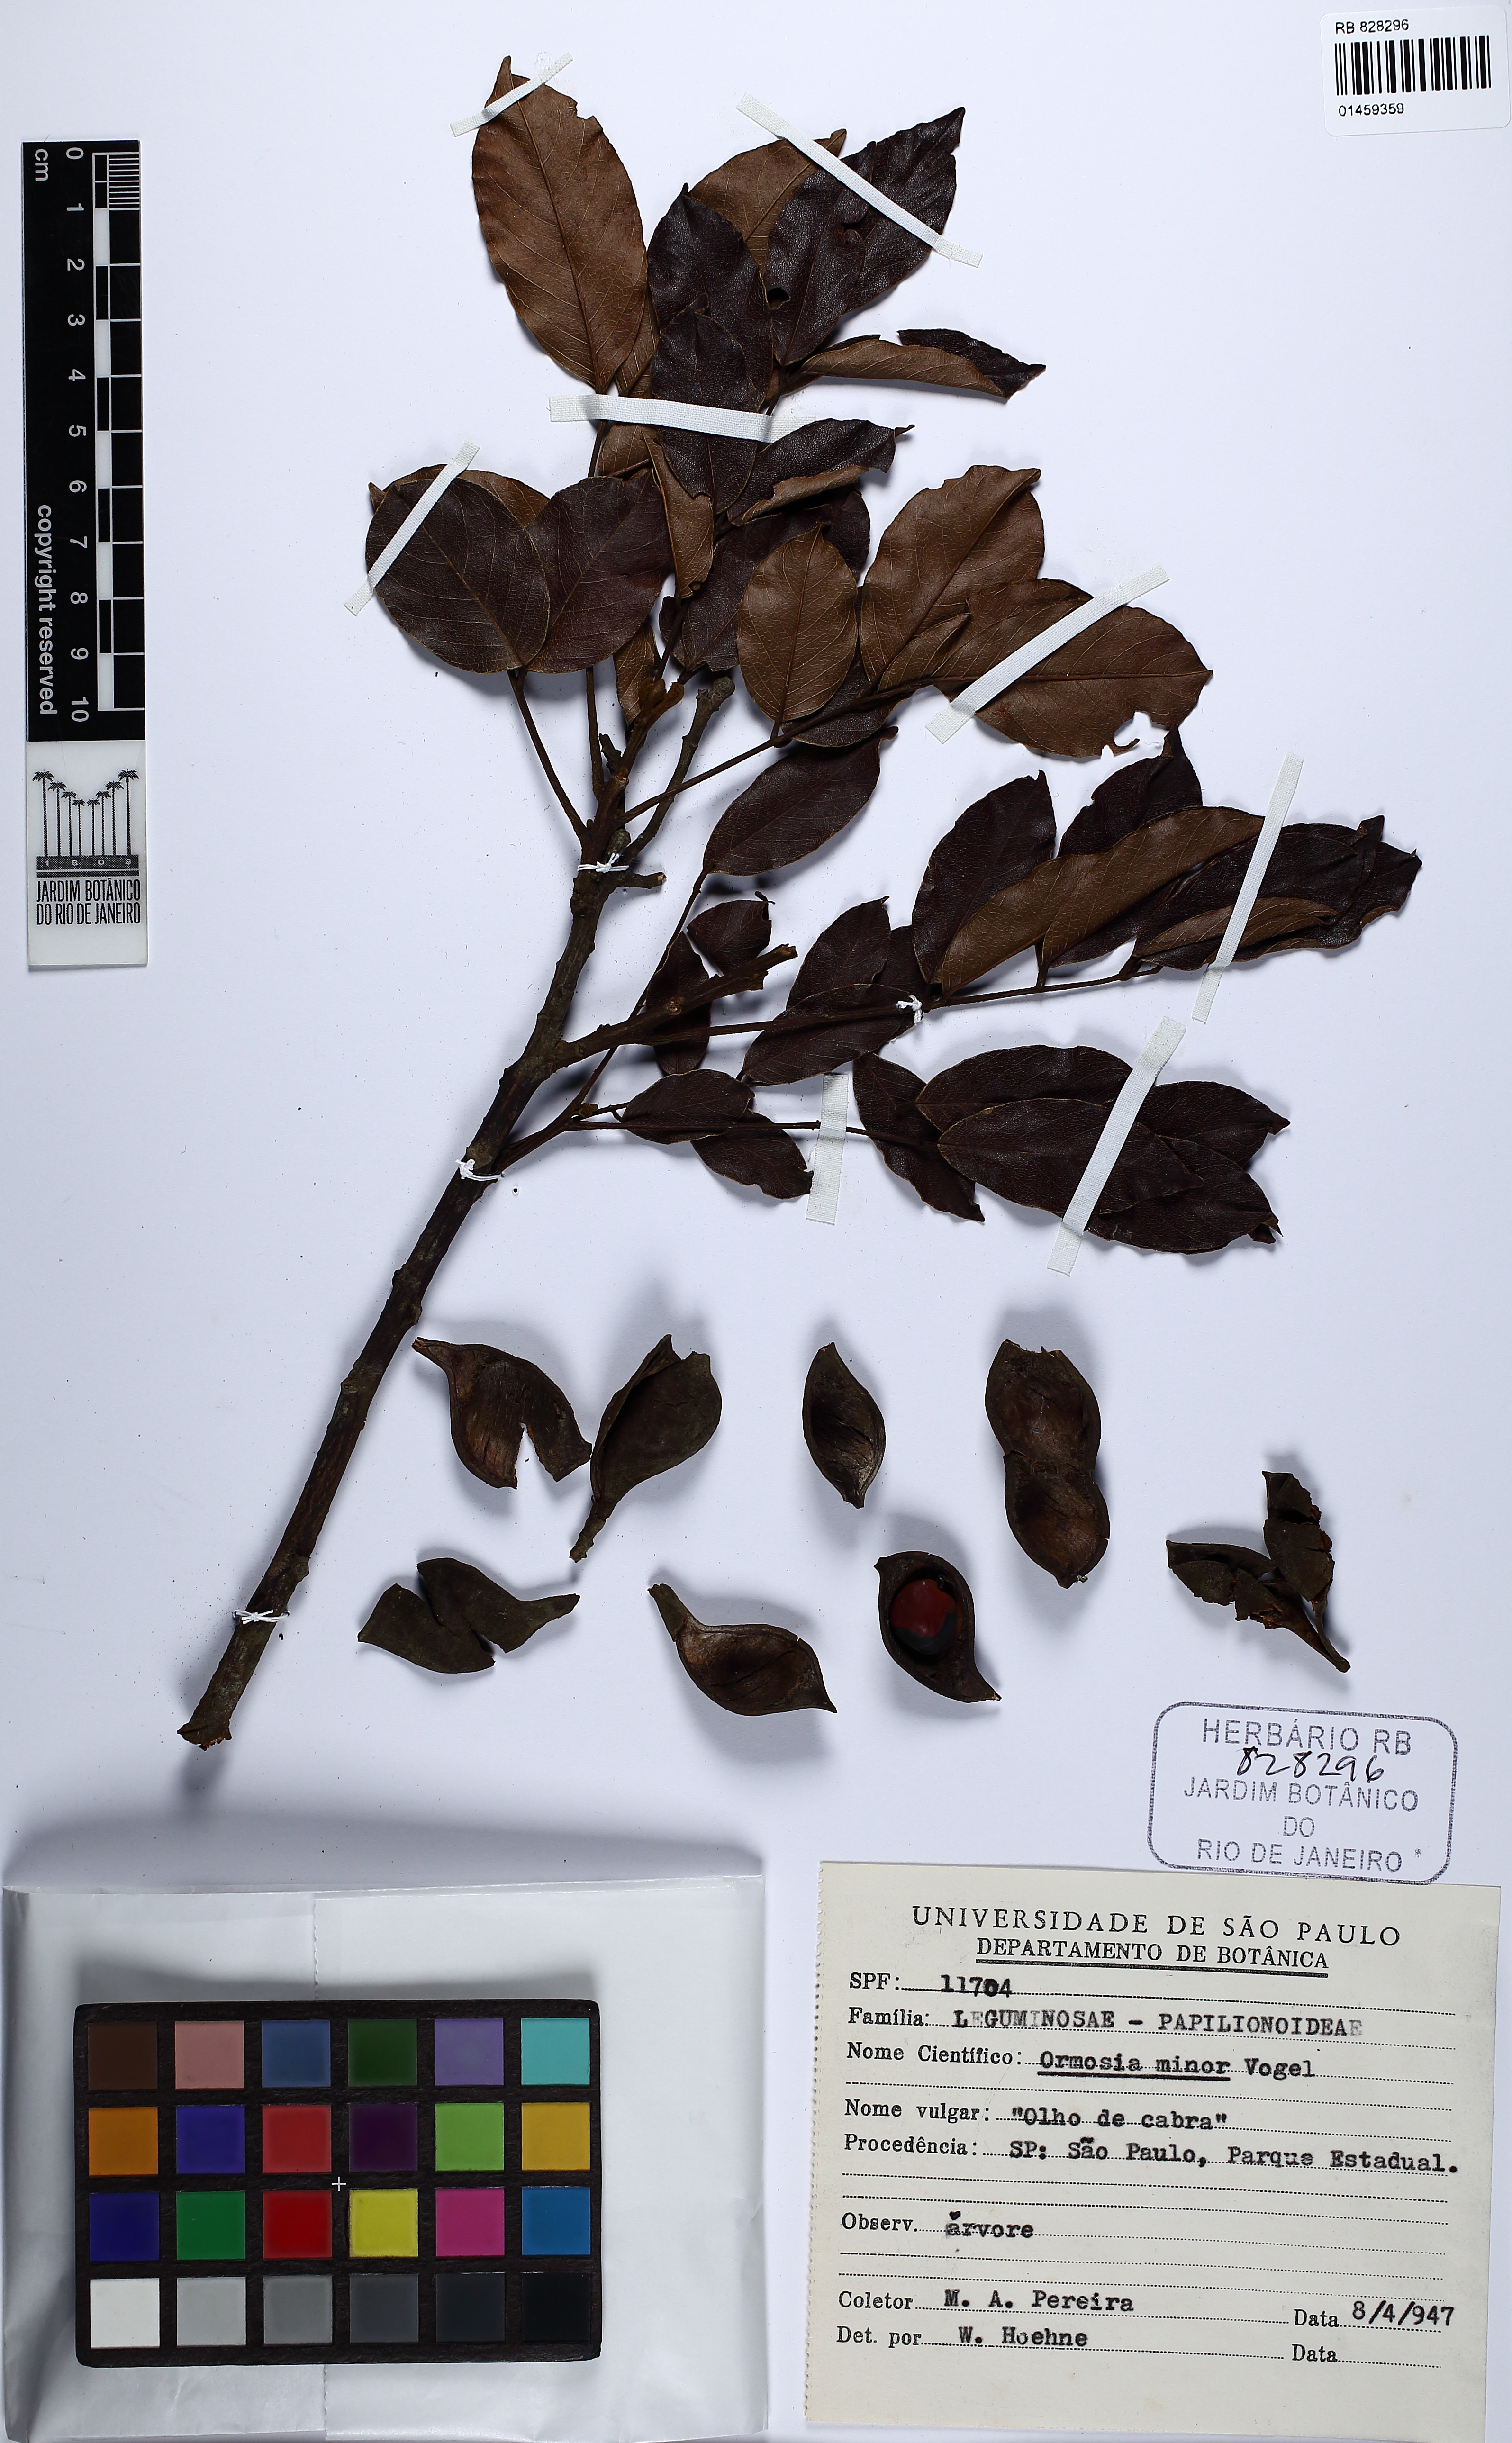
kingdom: Plantae
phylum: Tracheophyta
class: Magnoliopsida
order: Fabales
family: Fabaceae
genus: Ormosia
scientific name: Ormosia minor
